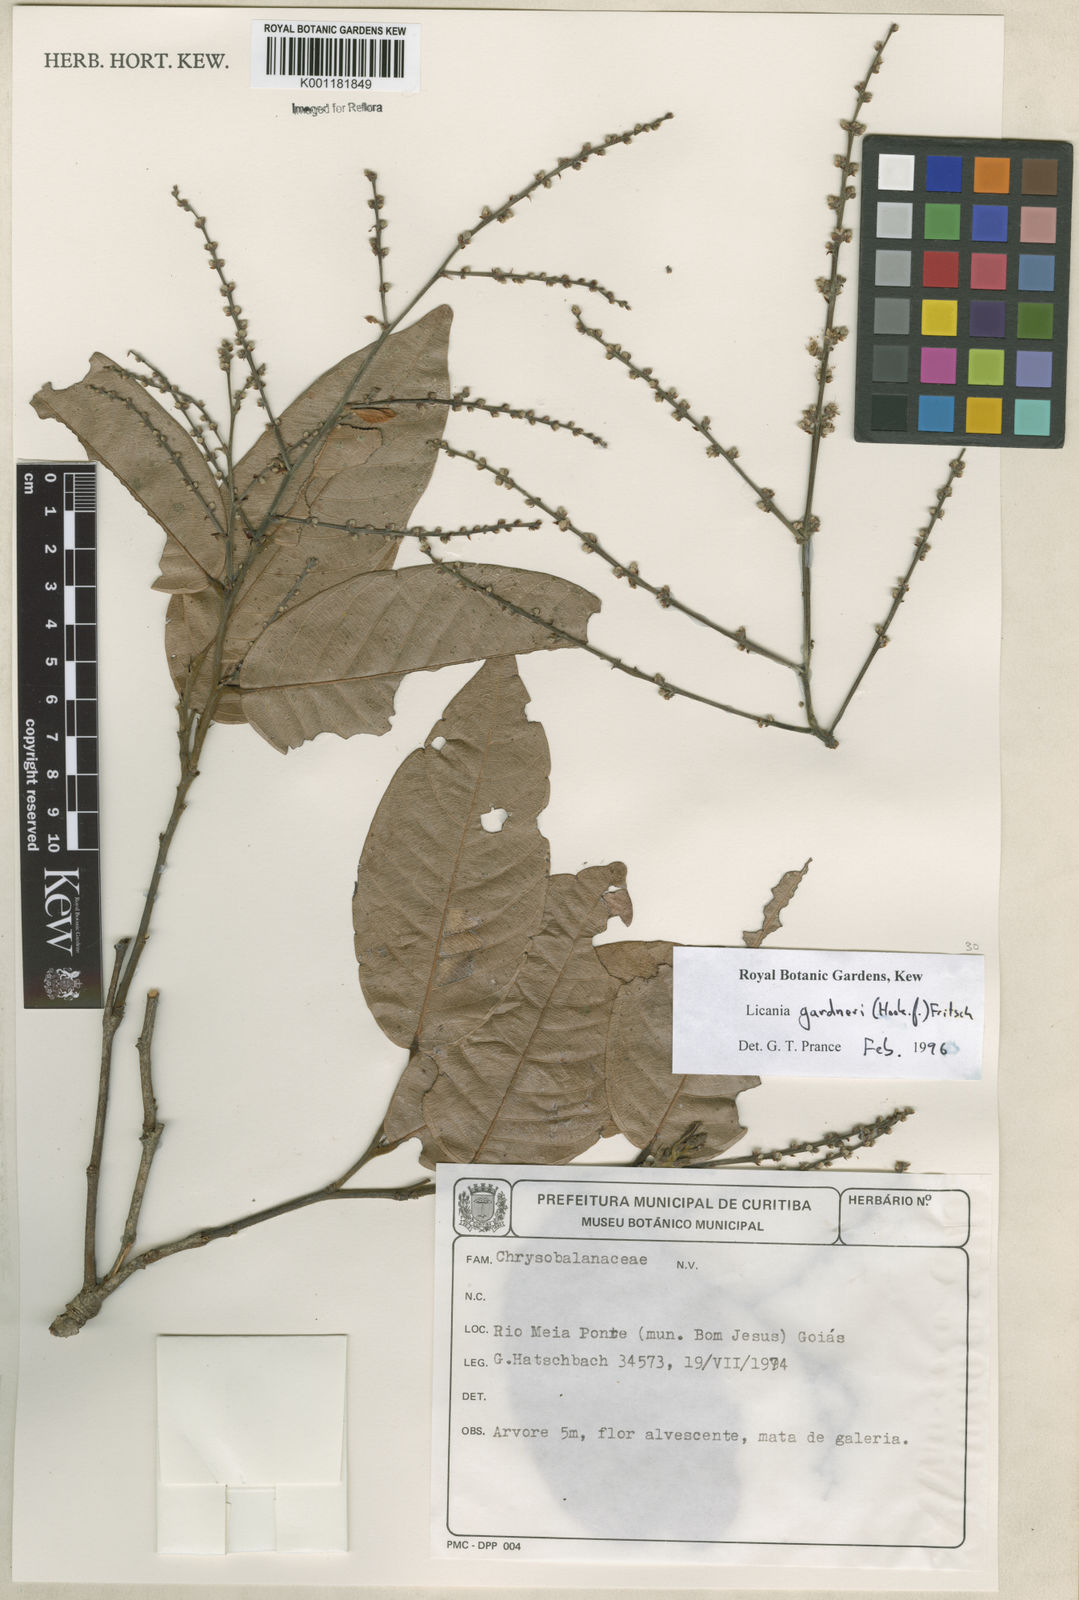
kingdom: Plantae
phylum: Tracheophyta
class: Magnoliopsida
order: Malpighiales
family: Chrysobalanaceae
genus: Leptobalanus
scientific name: Leptobalanus gardneri
